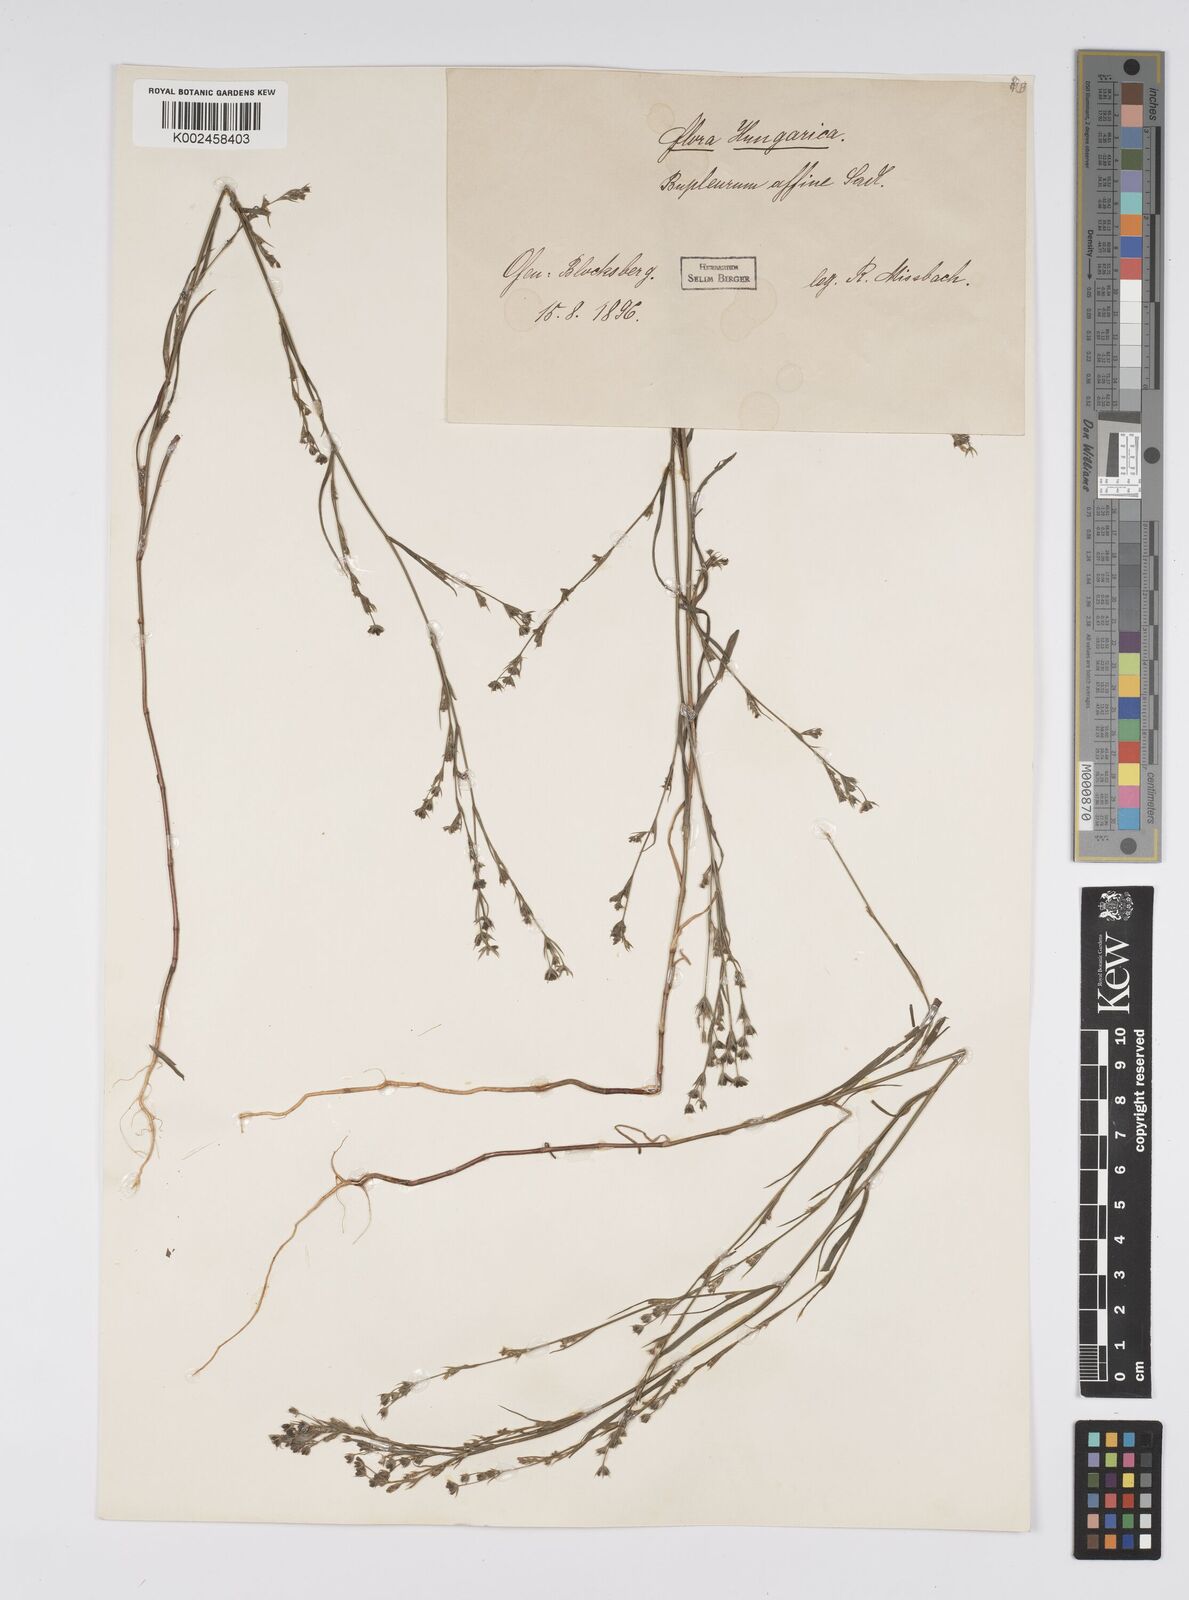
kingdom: Plantae
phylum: Tracheophyta
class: Magnoliopsida
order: Apiales
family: Apiaceae
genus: Bupleurum
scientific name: Bupleurum affine
